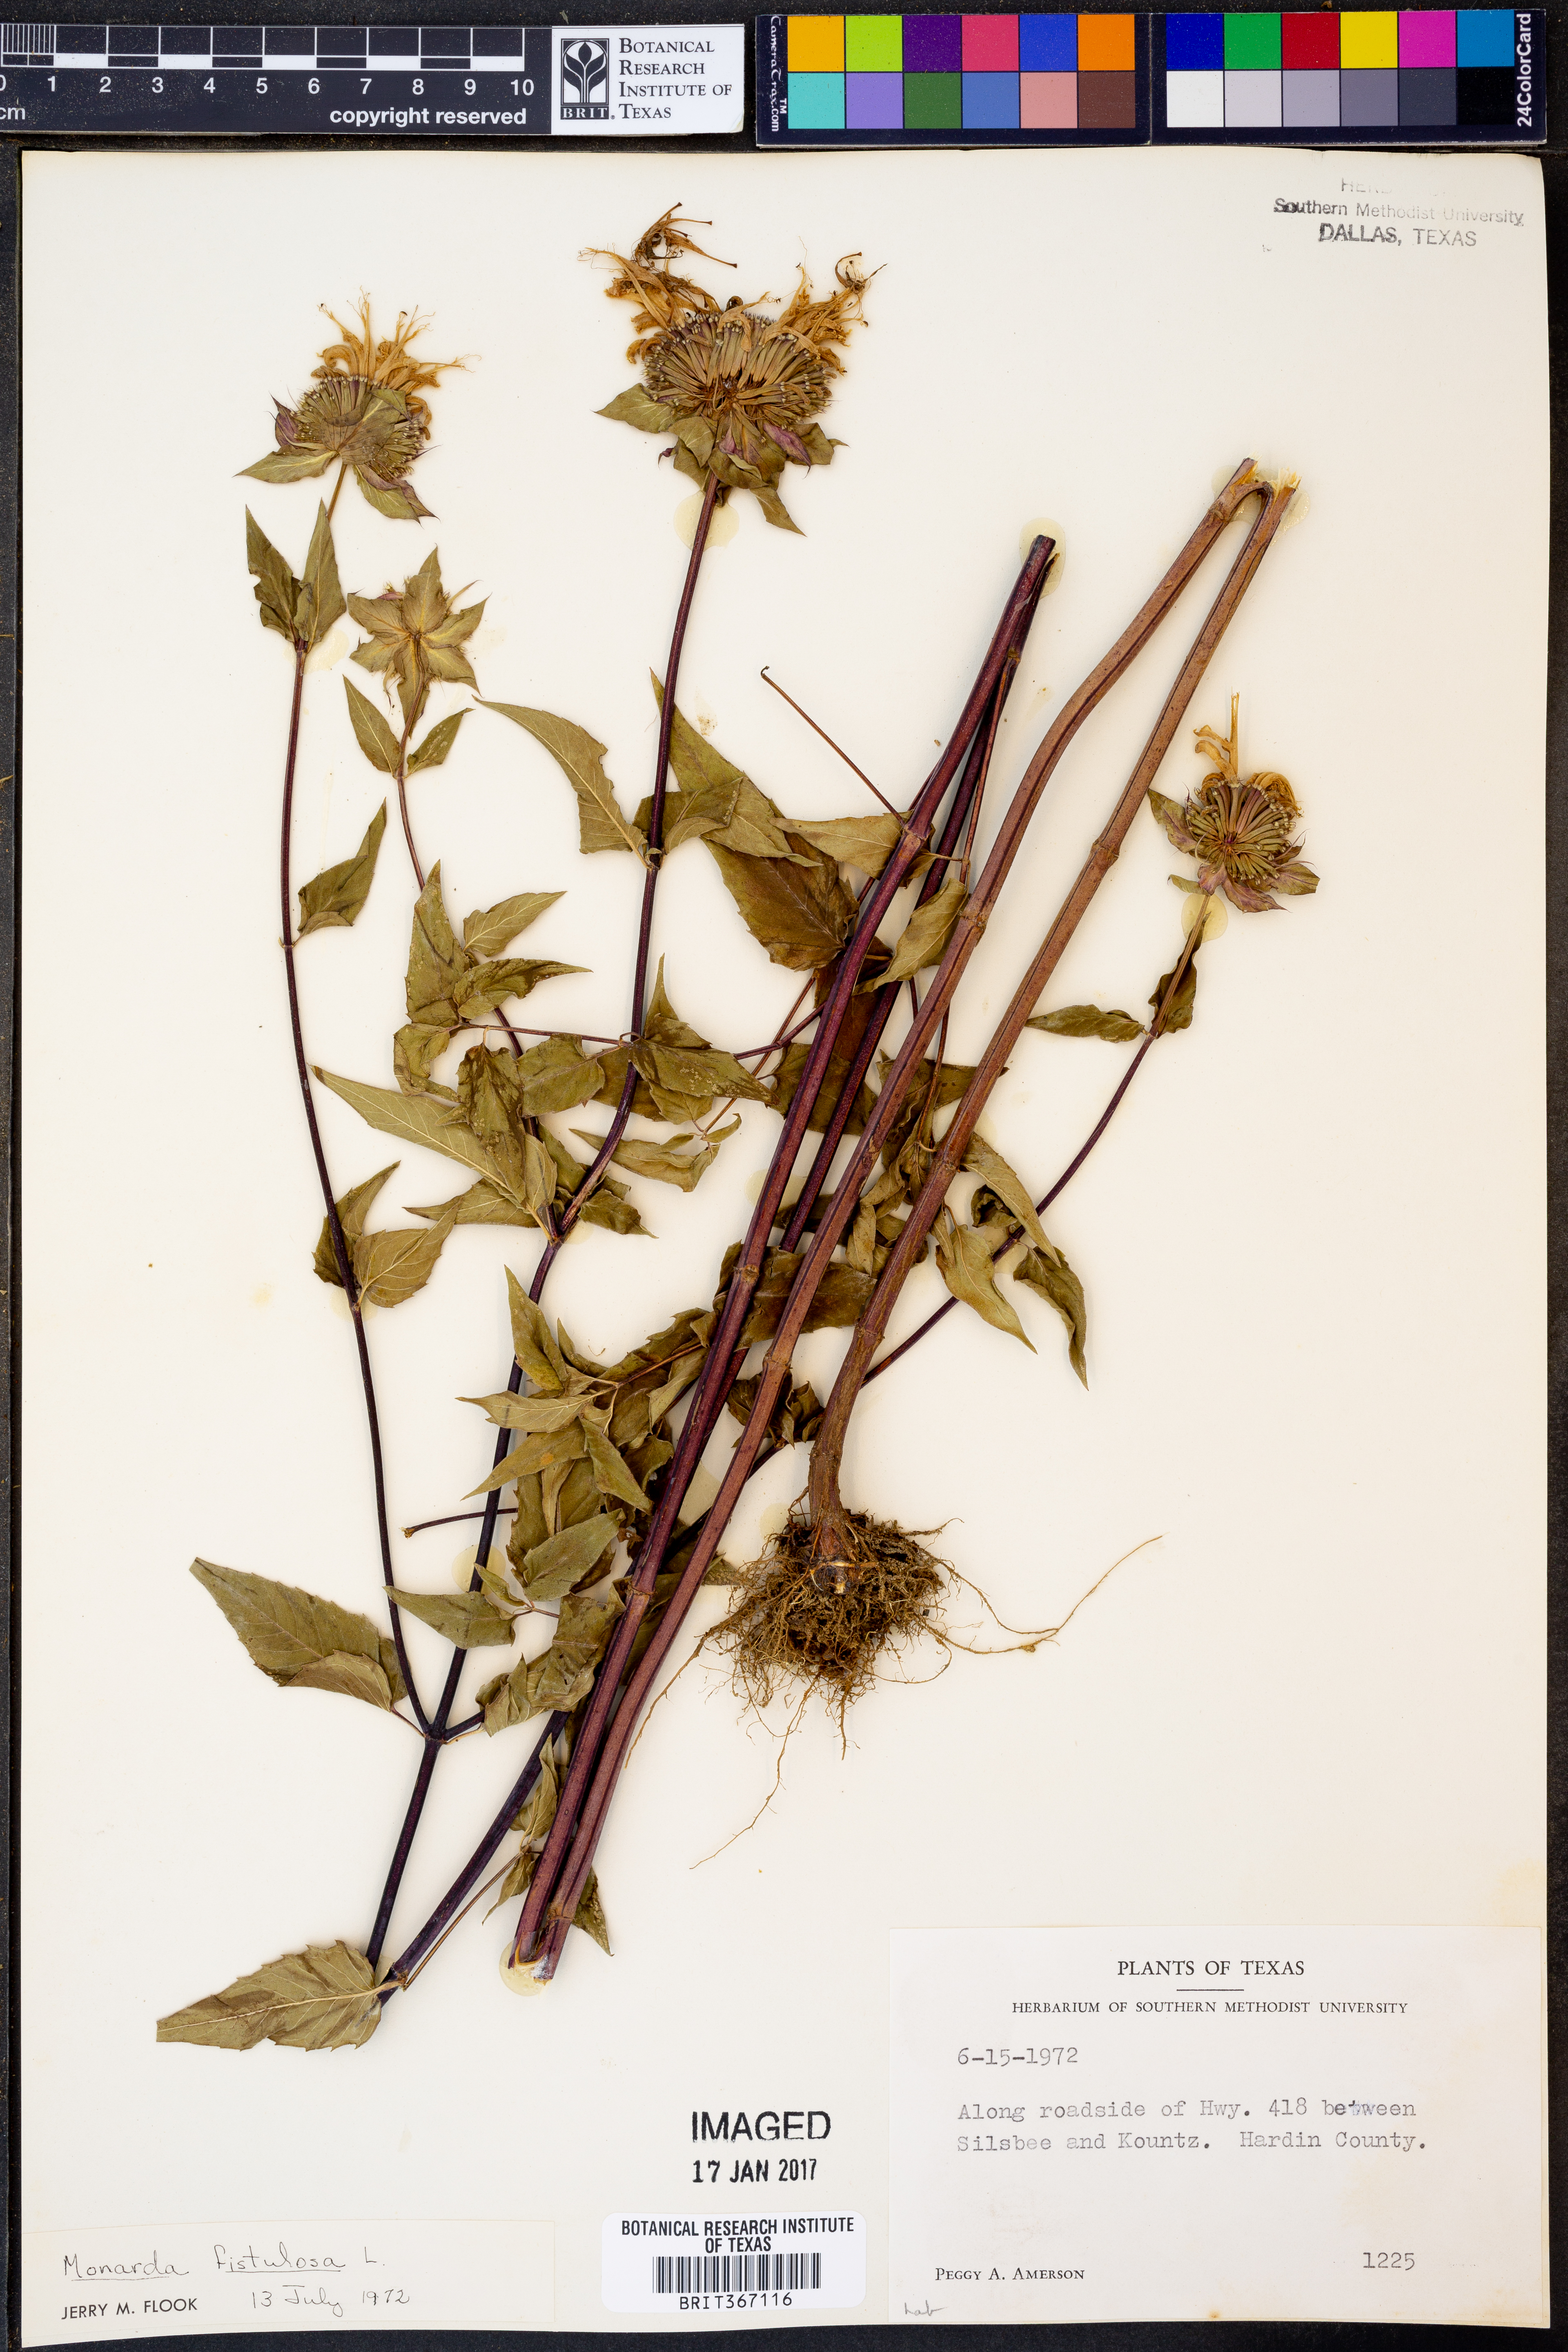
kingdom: Plantae
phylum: Tracheophyta
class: Magnoliopsida
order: Lamiales
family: Lamiaceae
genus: Monarda
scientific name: Monarda fistulosa
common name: Purple beebalm
